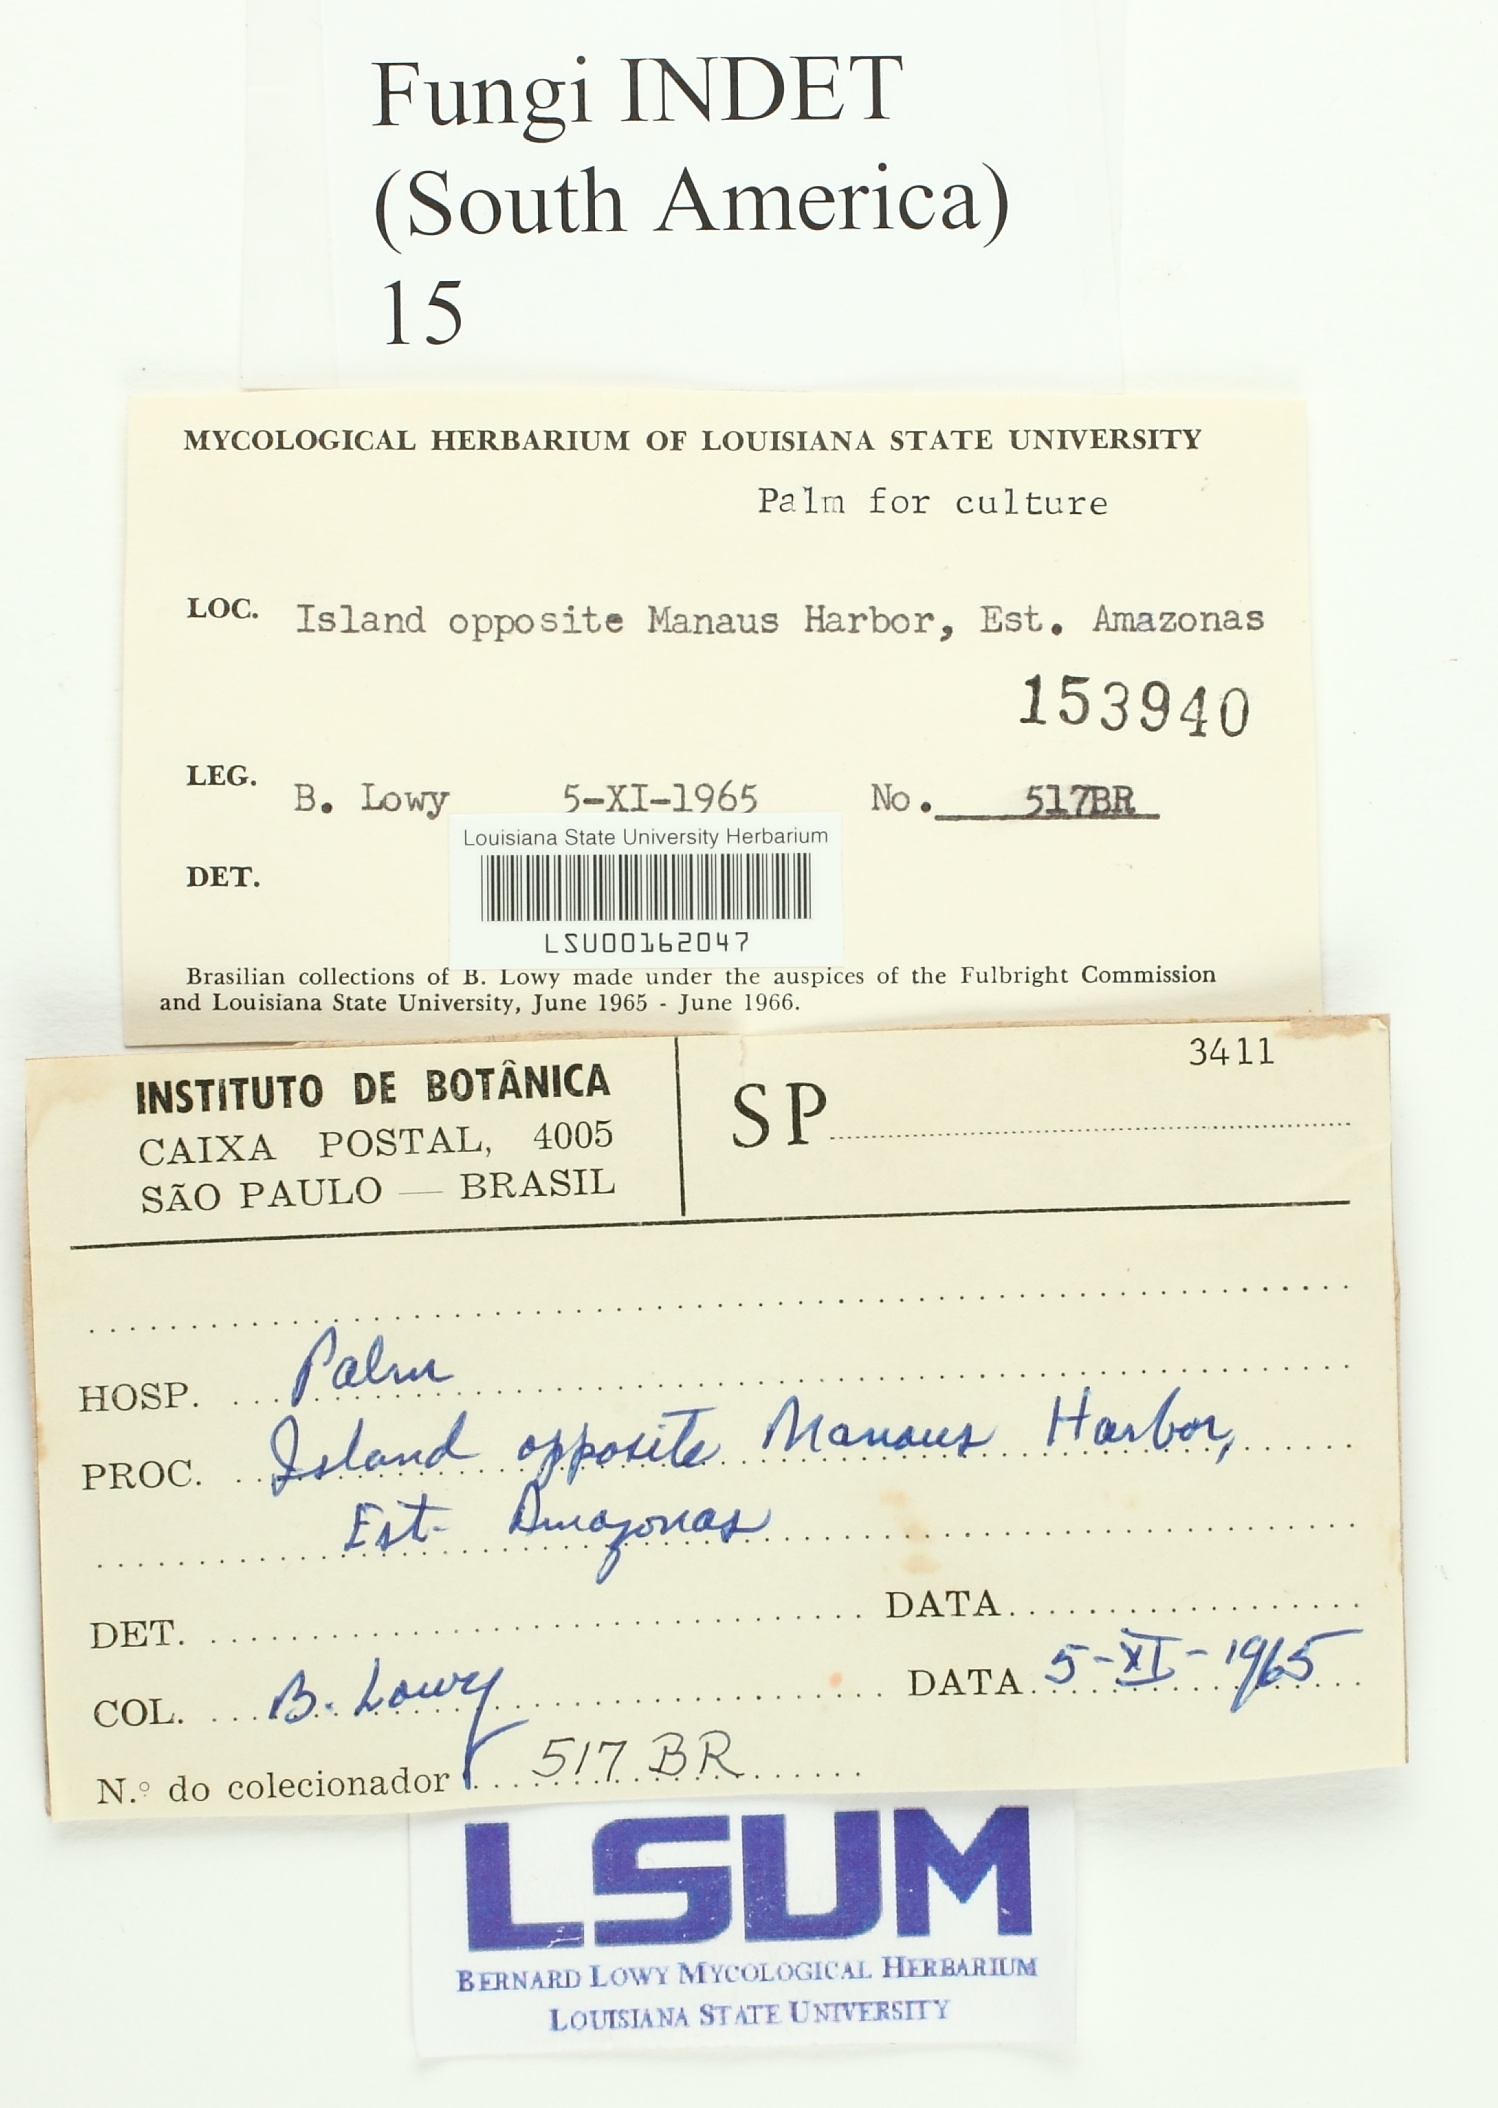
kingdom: Fungi
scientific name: Fungi
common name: Fungi
